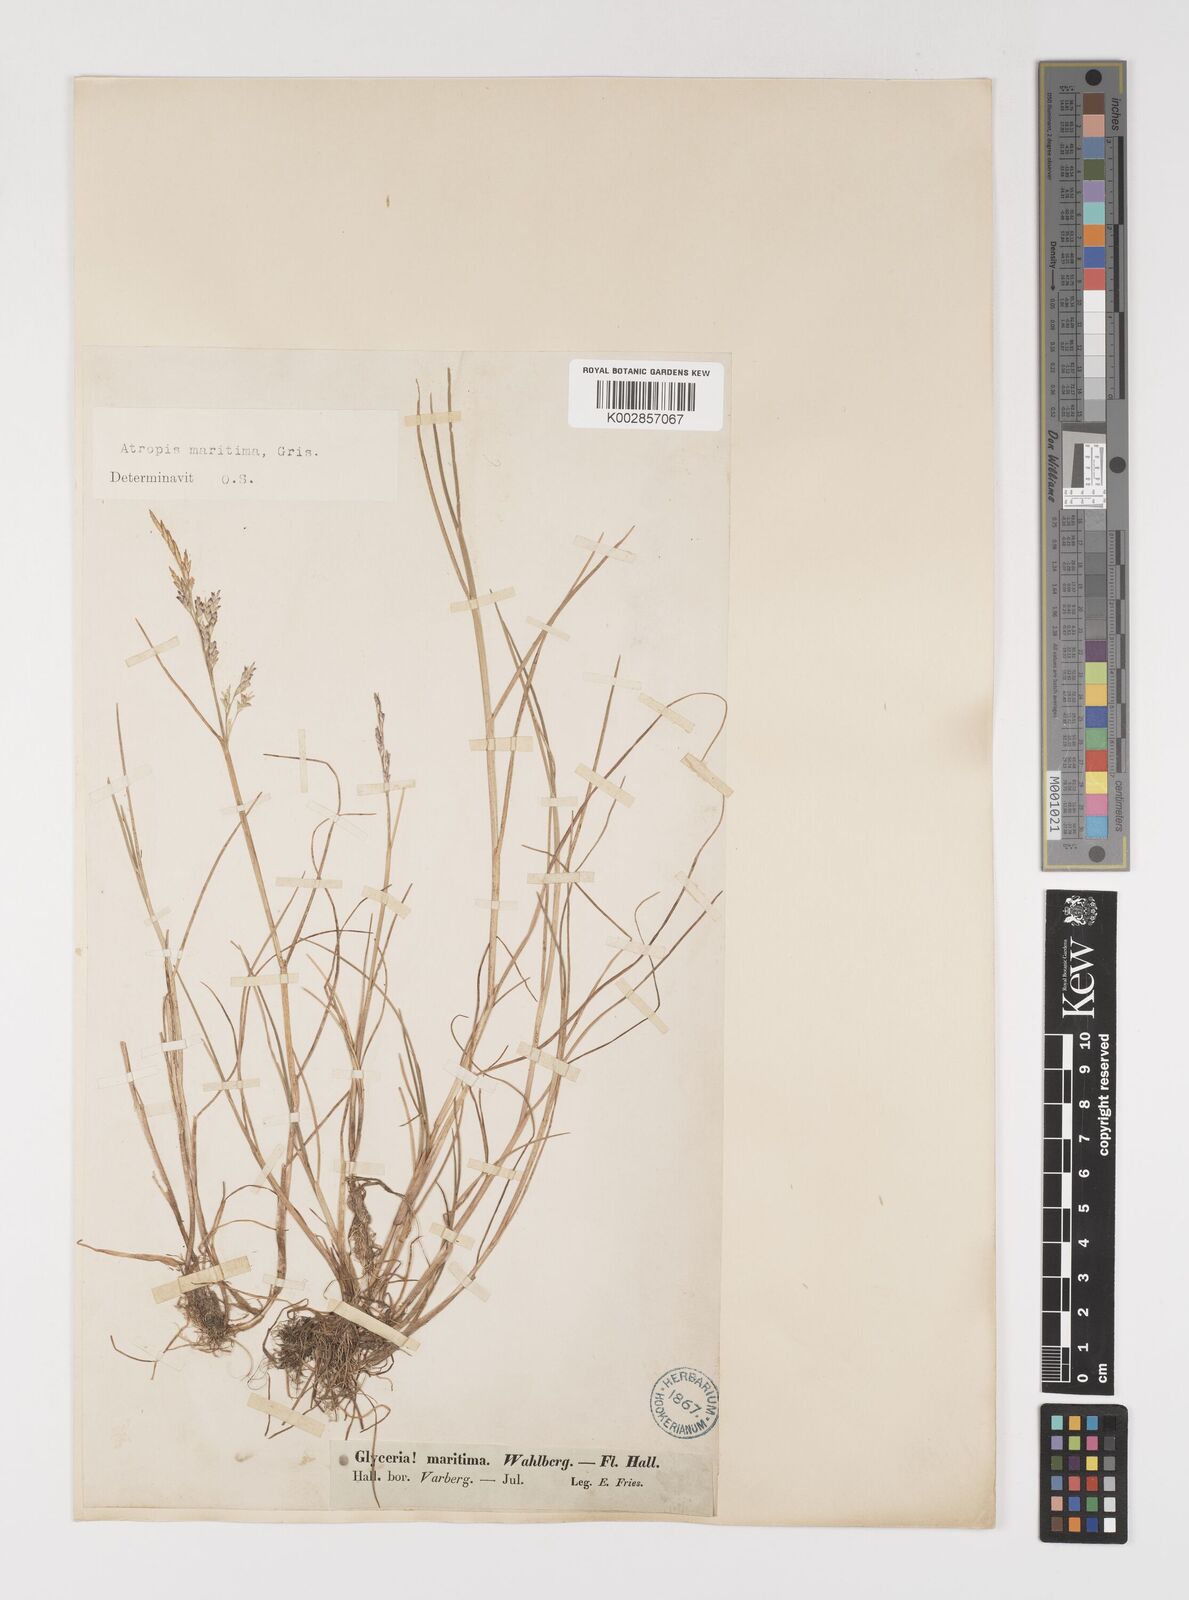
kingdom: Plantae
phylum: Tracheophyta
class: Liliopsida
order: Poales
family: Poaceae
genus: Puccinellia
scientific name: Puccinellia maritima
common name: Common saltmarsh grass
